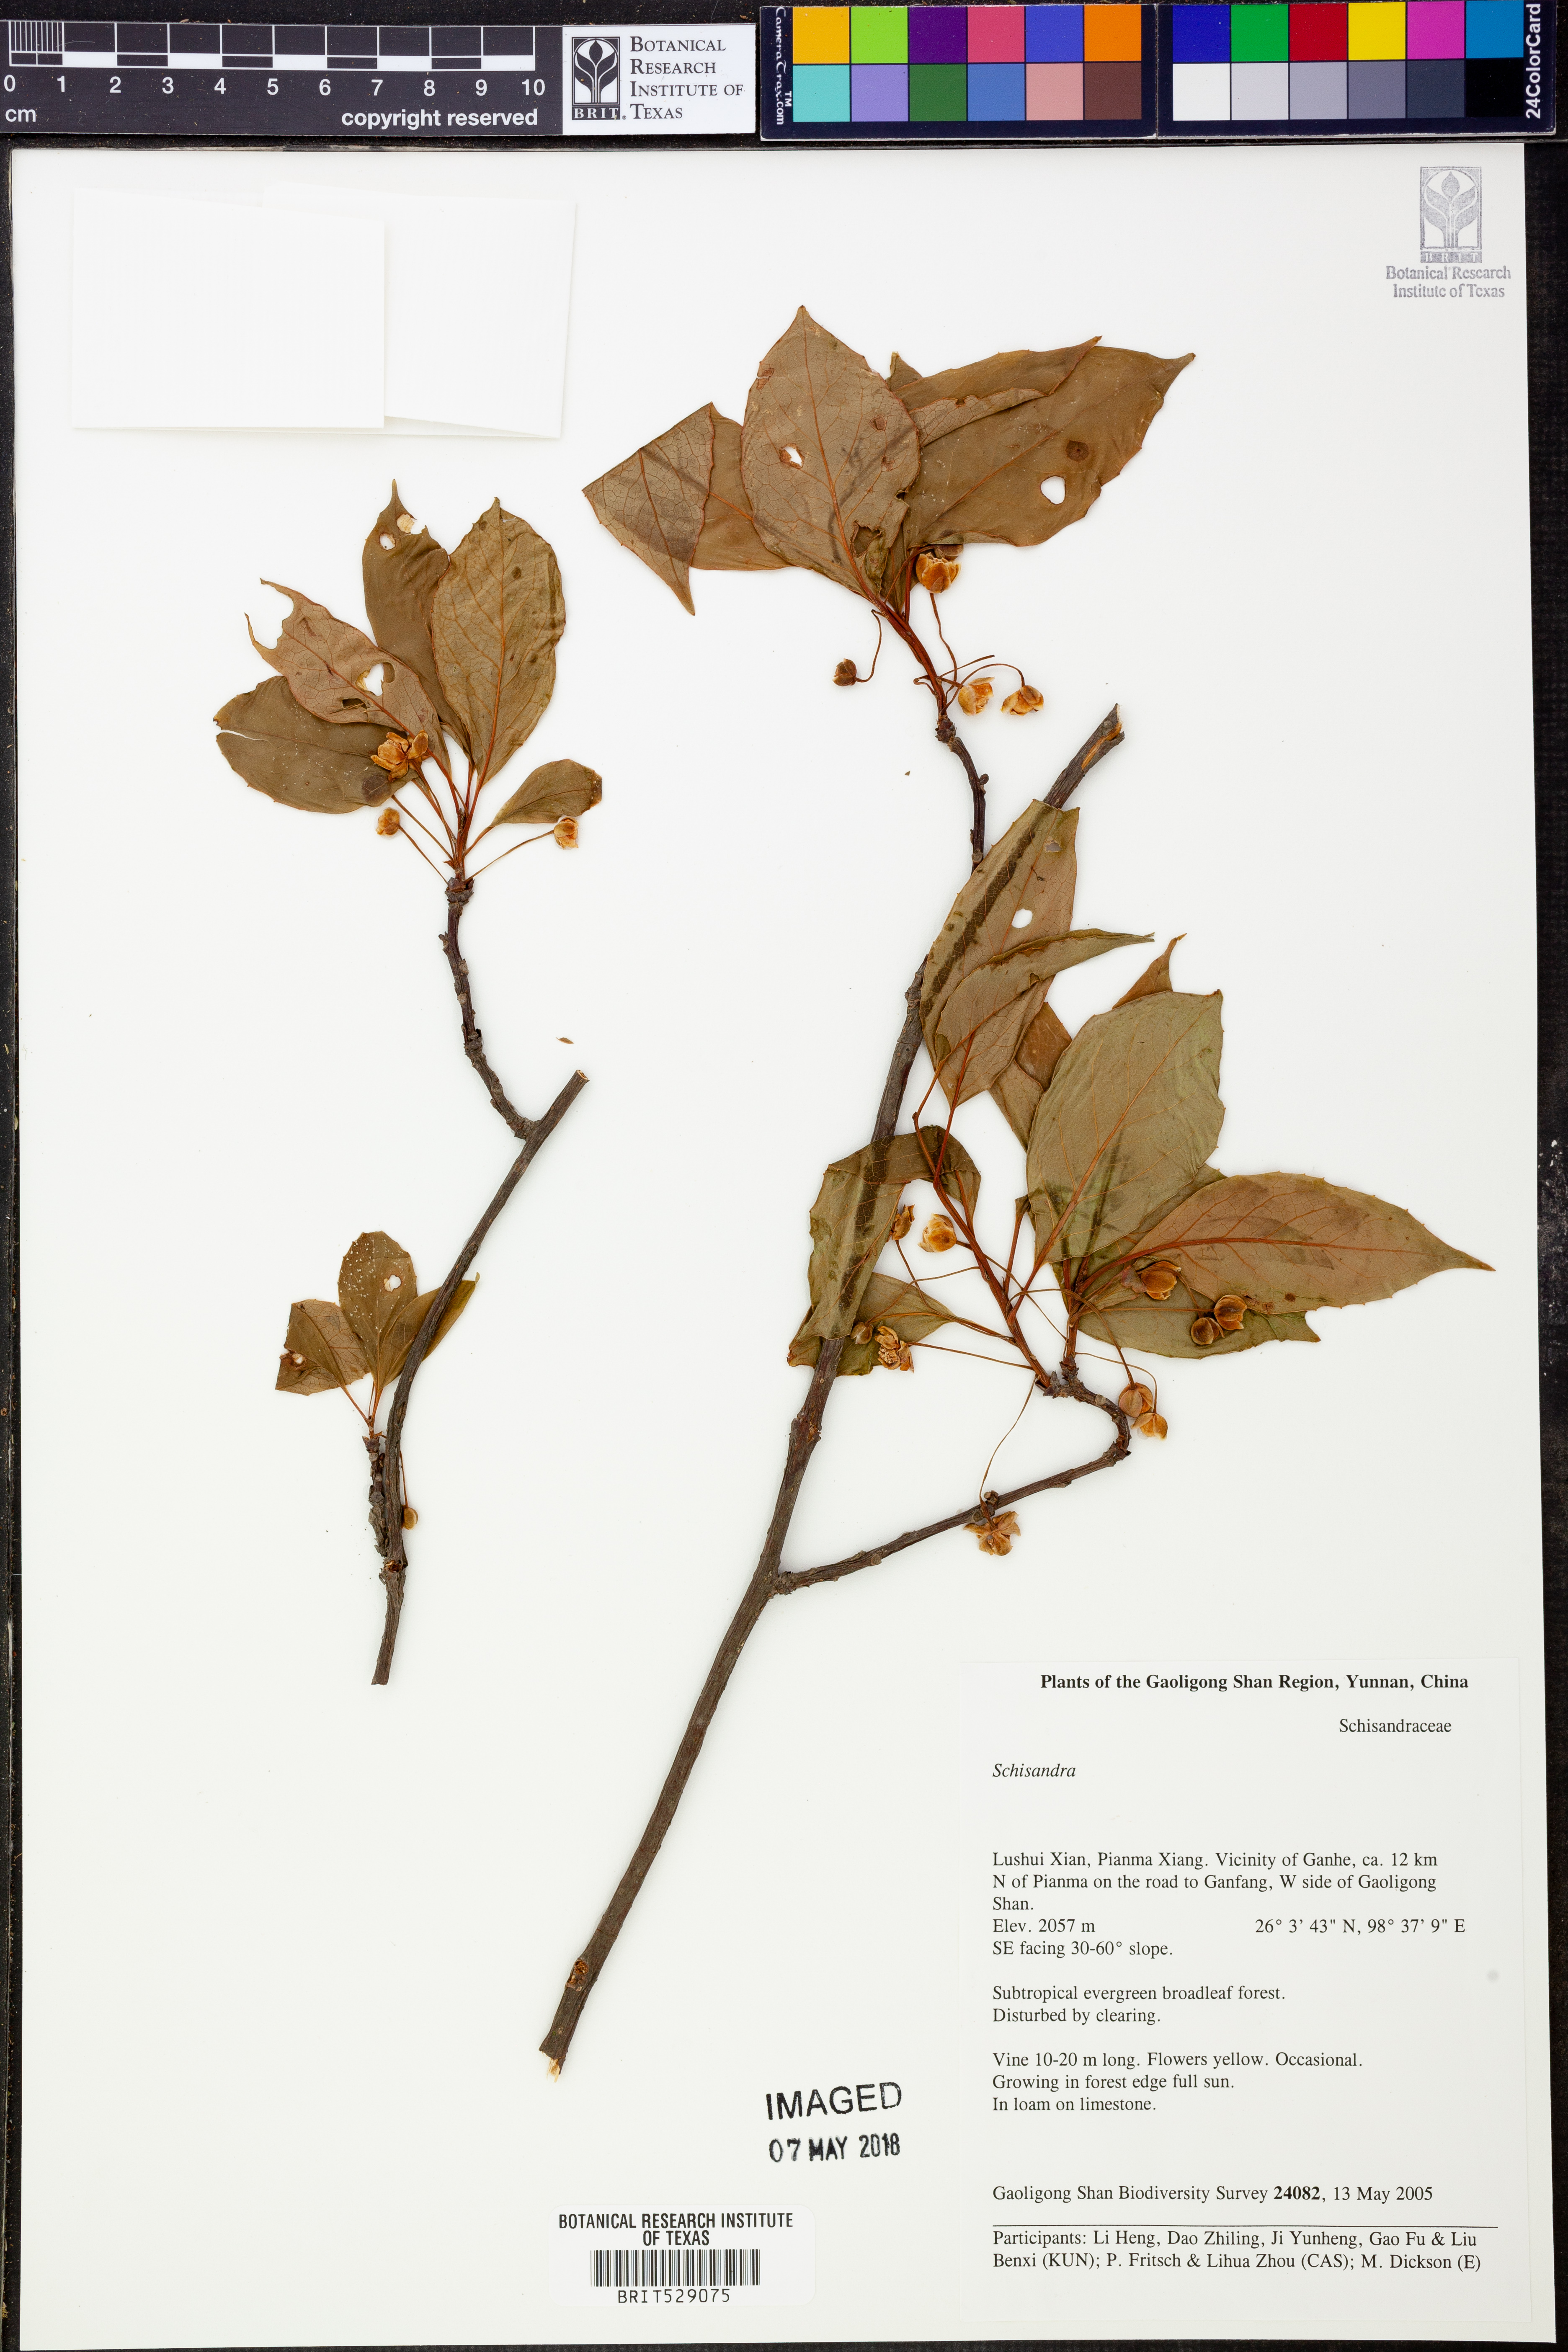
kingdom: Plantae
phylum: Tracheophyta
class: Magnoliopsida
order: Austrobaileyales
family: Schisandraceae
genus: Schisandra
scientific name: Schisandra
